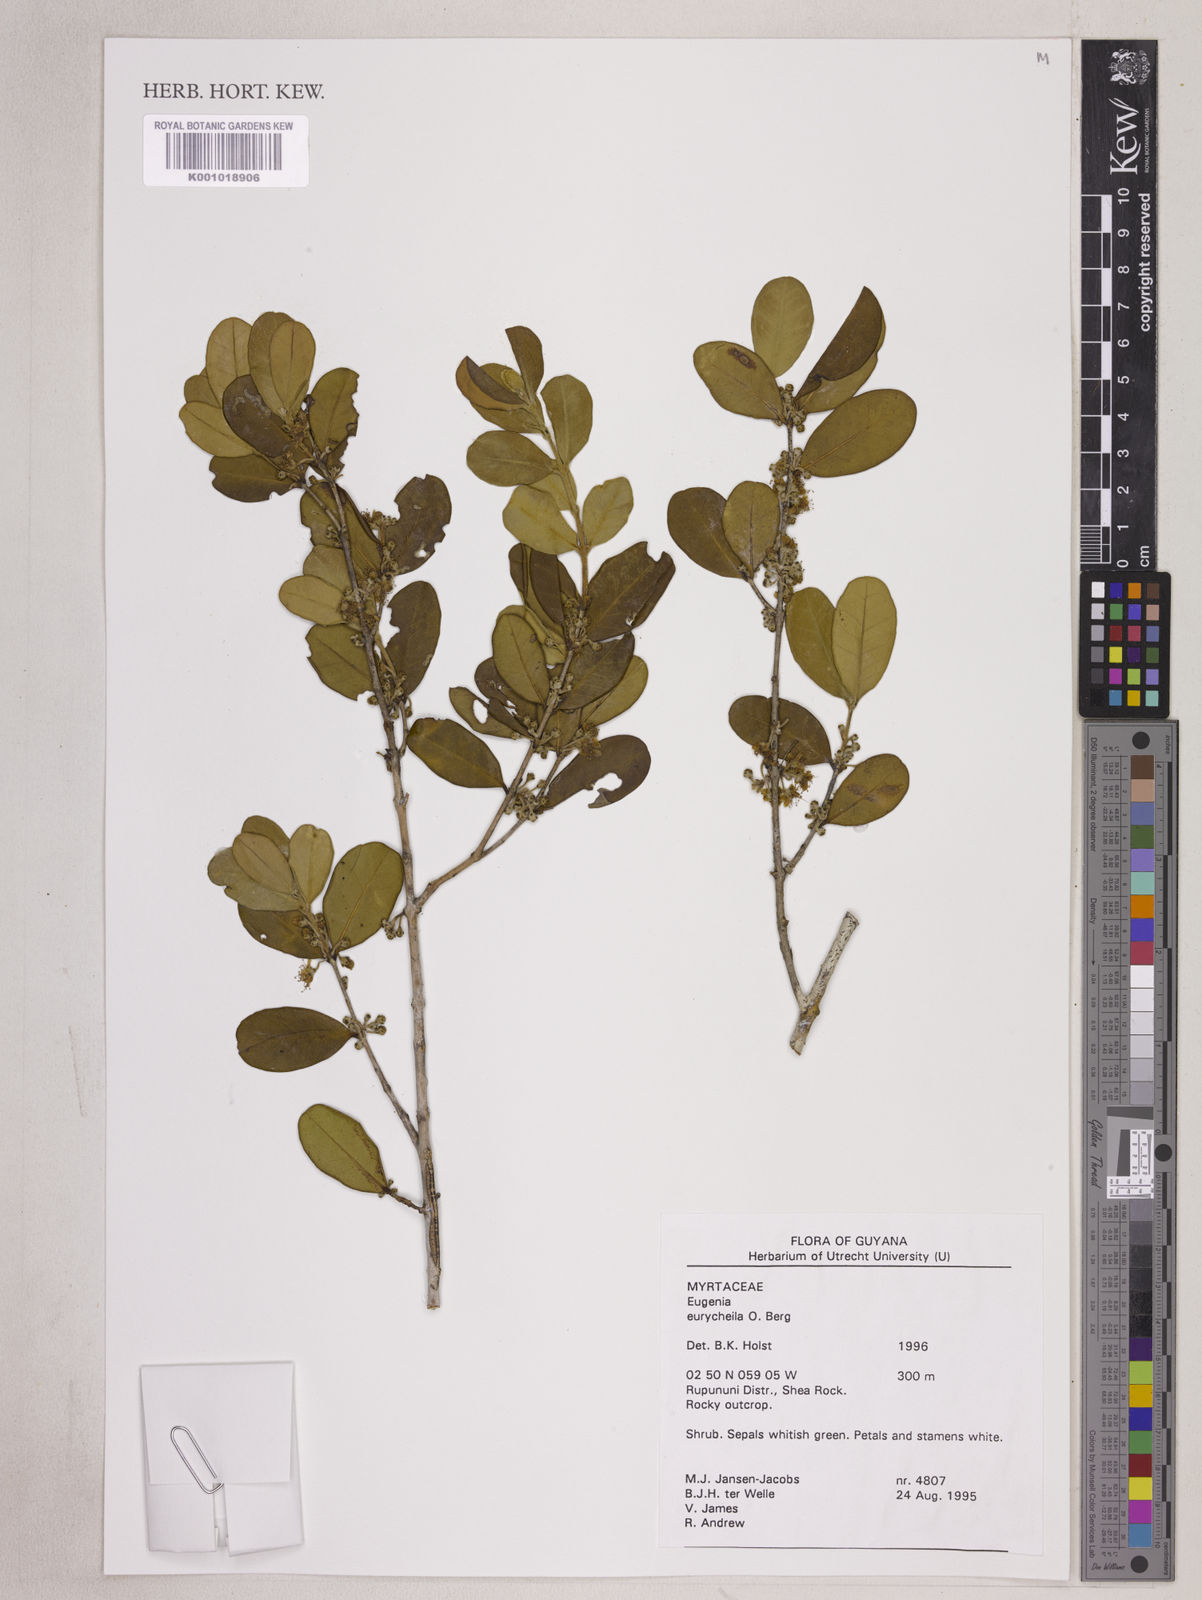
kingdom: Plantae
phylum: Tracheophyta
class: Magnoliopsida
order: Myrtales
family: Myrtaceae
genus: Eugenia
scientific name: Eugenia eurycheila
